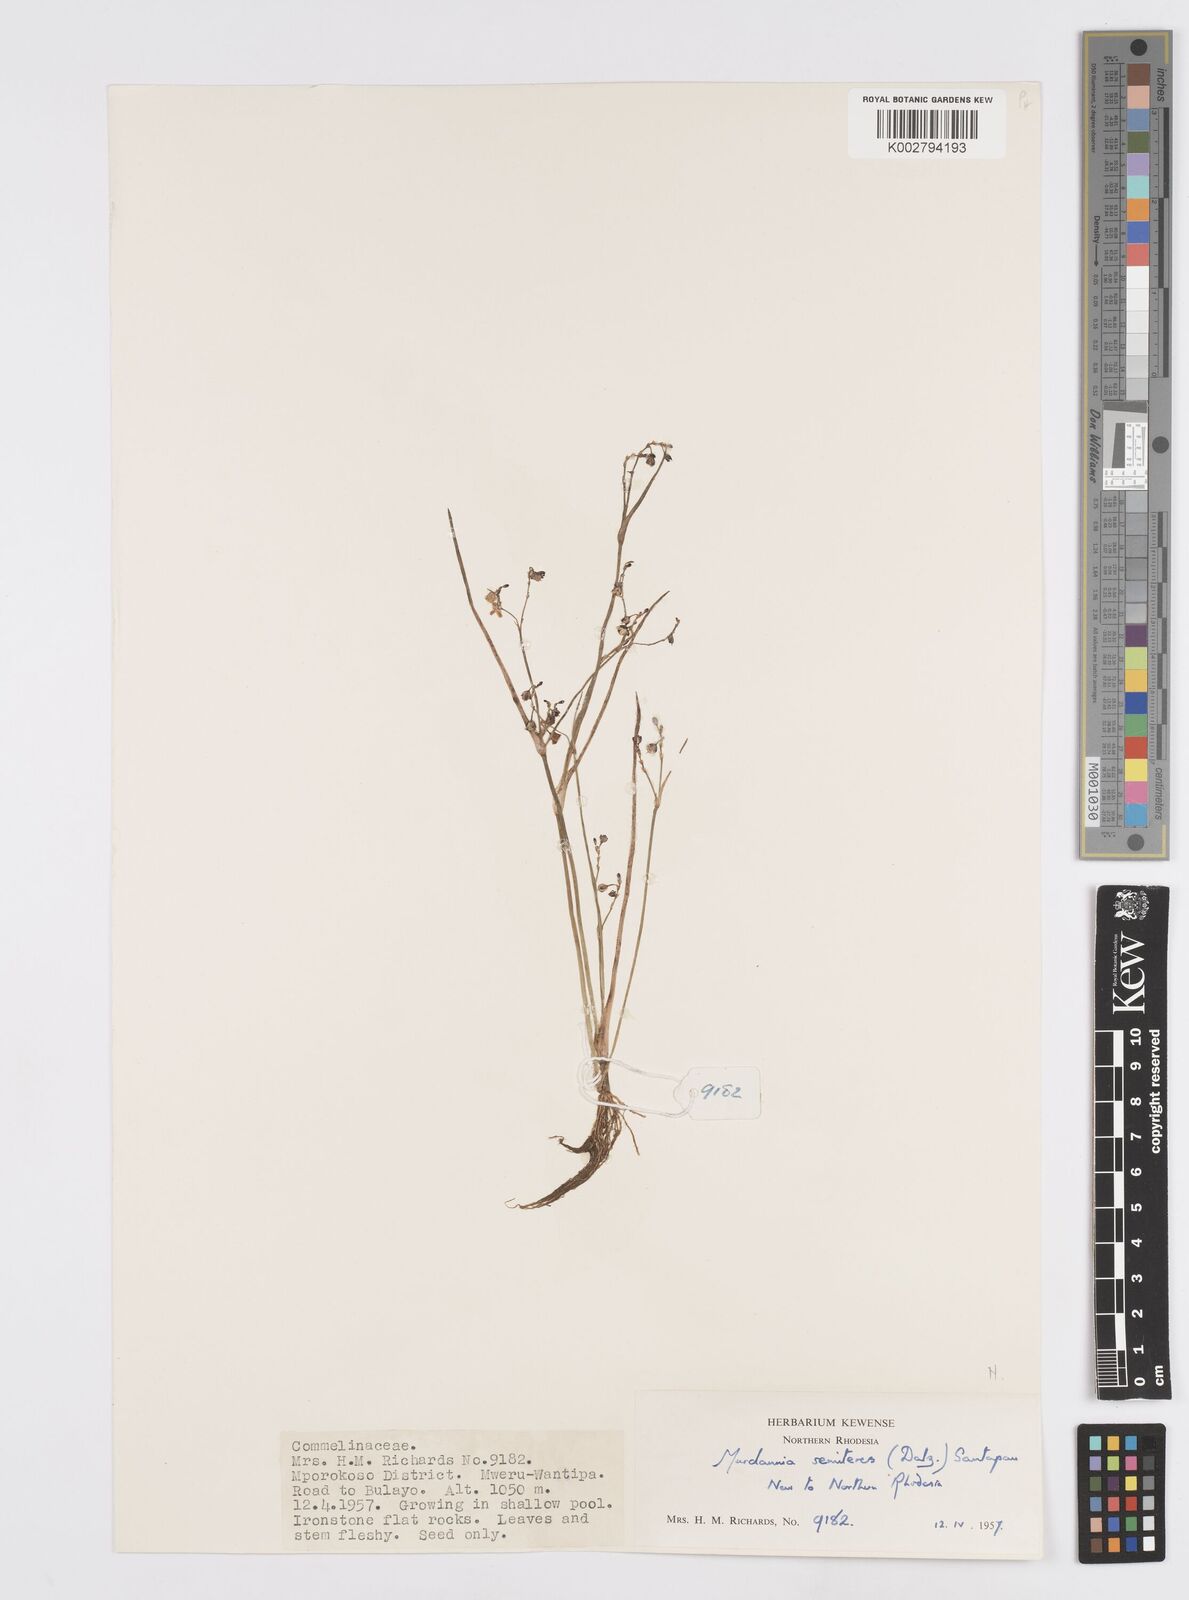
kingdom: Plantae
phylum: Tracheophyta
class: Liliopsida
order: Commelinales
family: Commelinaceae
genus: Murdannia
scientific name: Murdannia semiteres
